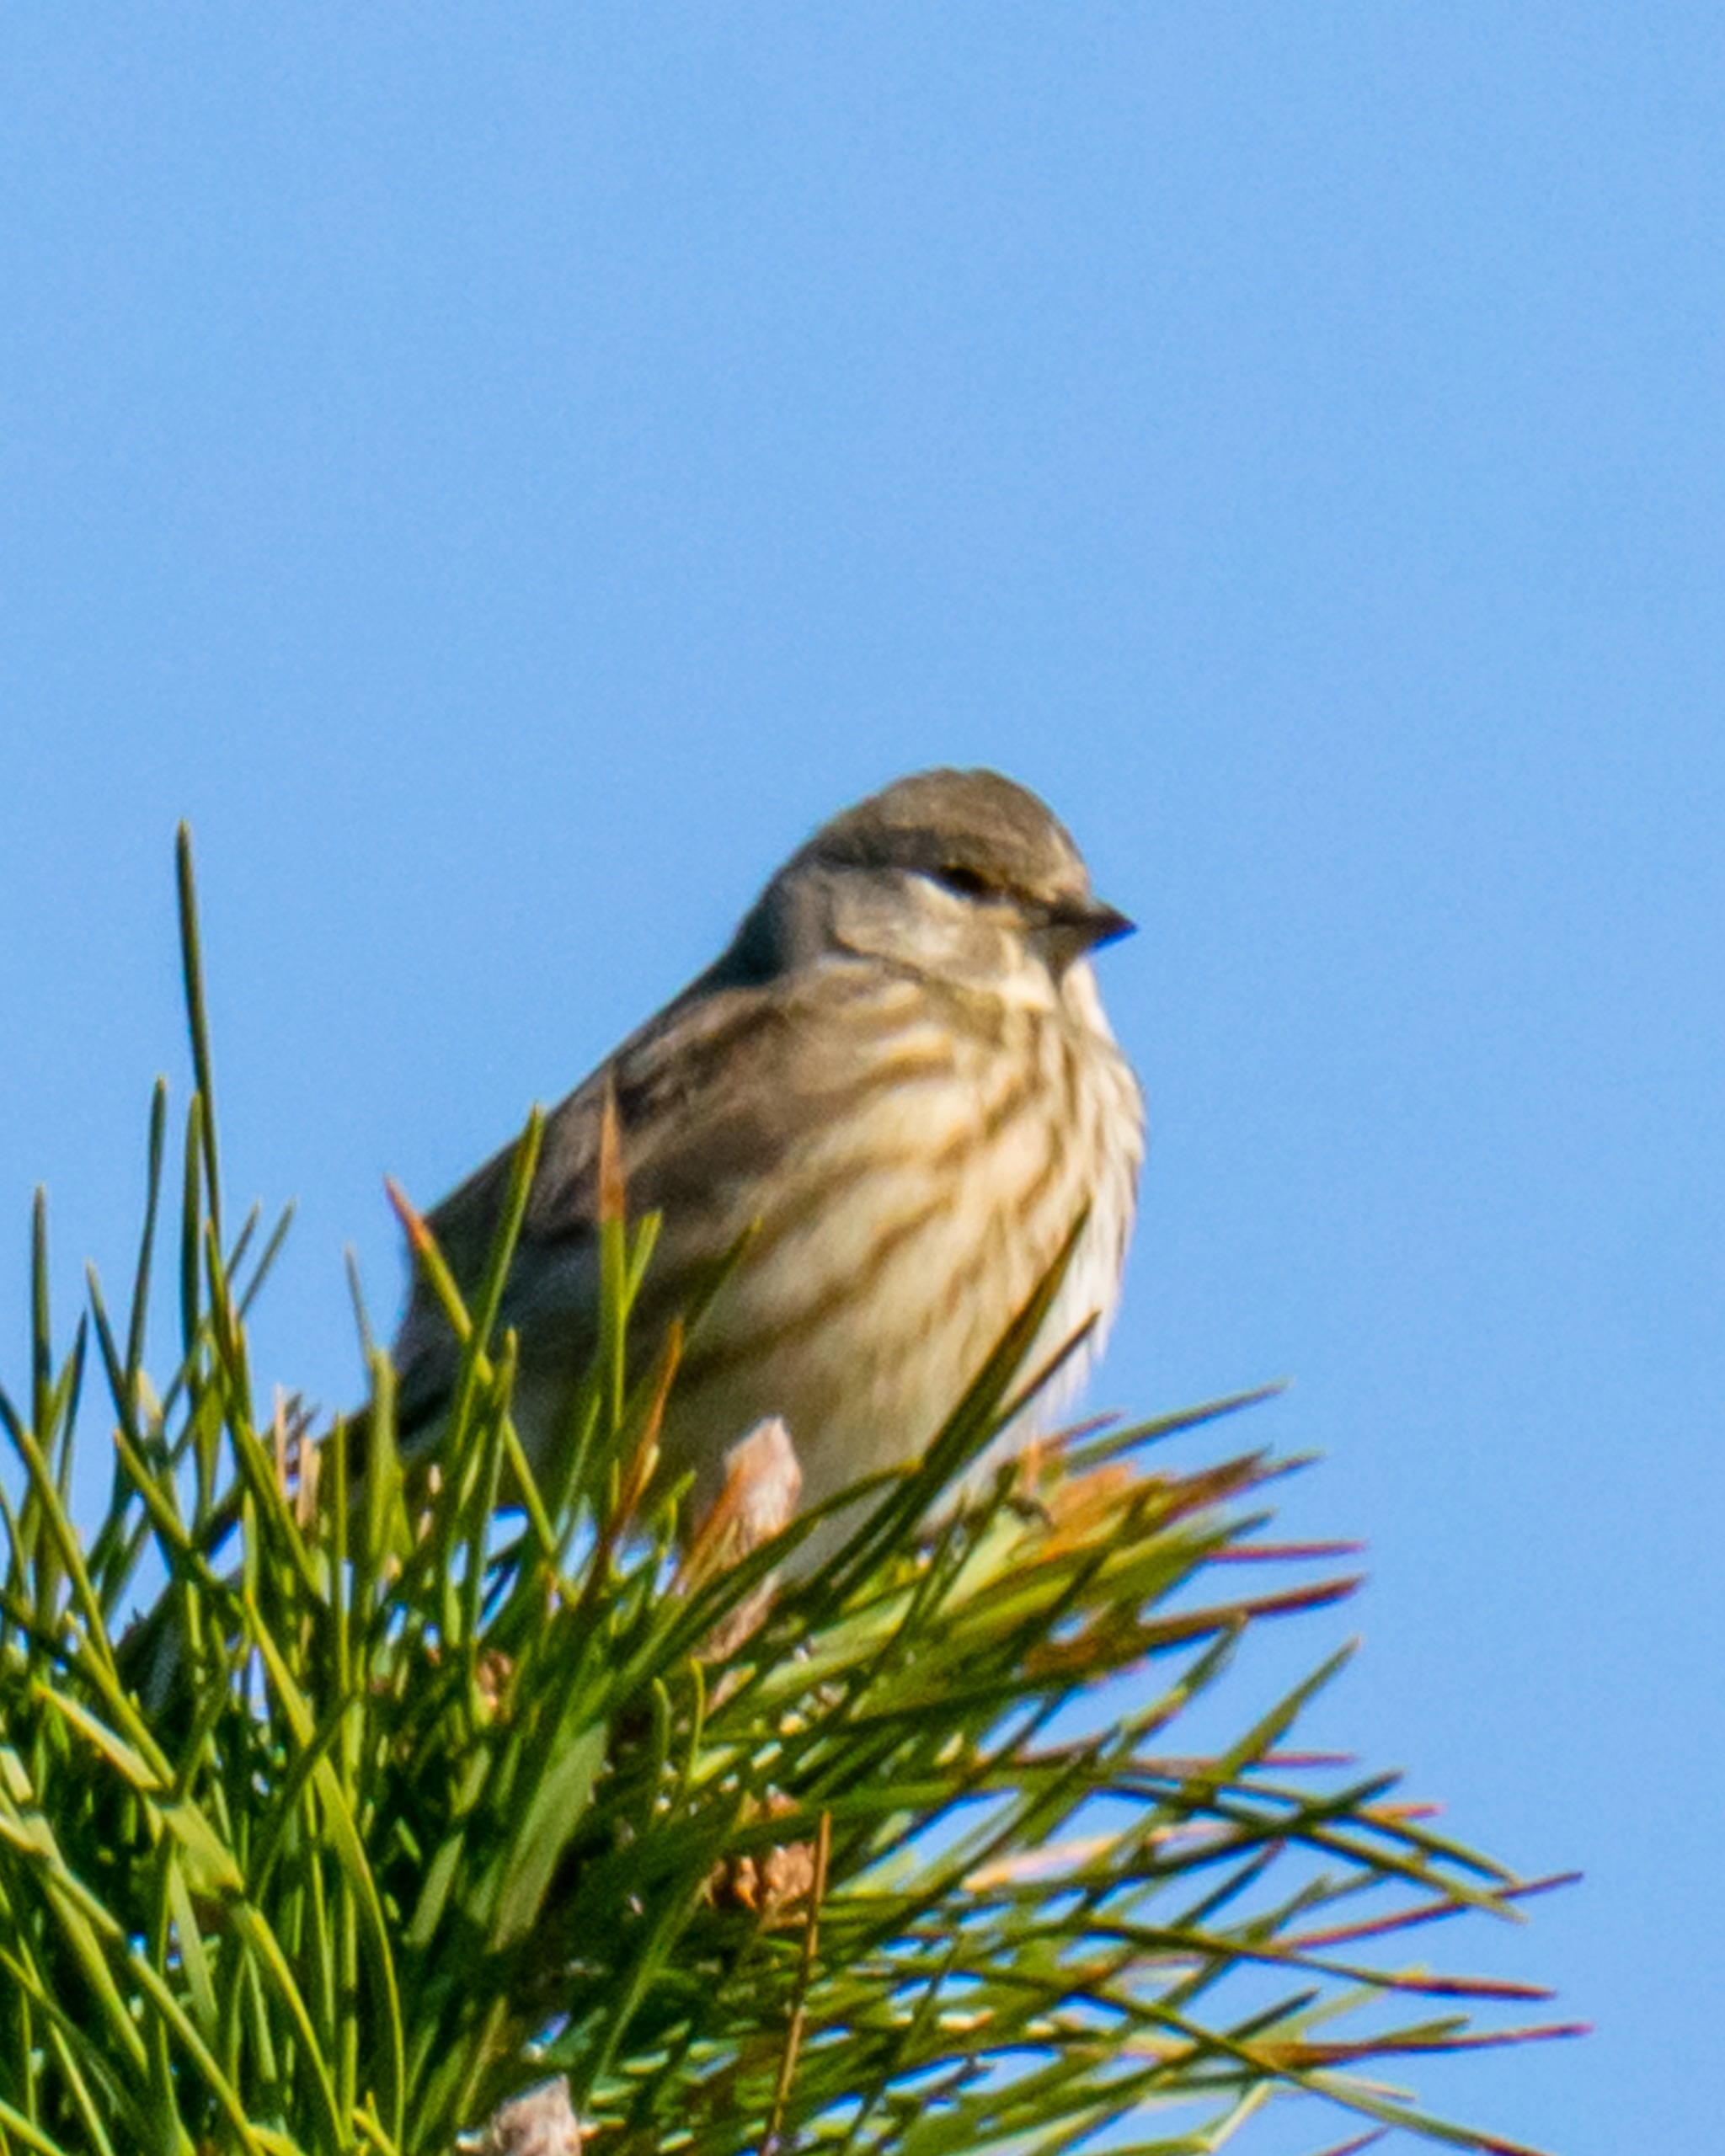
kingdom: Animalia
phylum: Chordata
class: Aves
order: Passeriformes
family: Fringillidae
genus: Linaria
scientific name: Linaria cannabina
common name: Tornirisk
